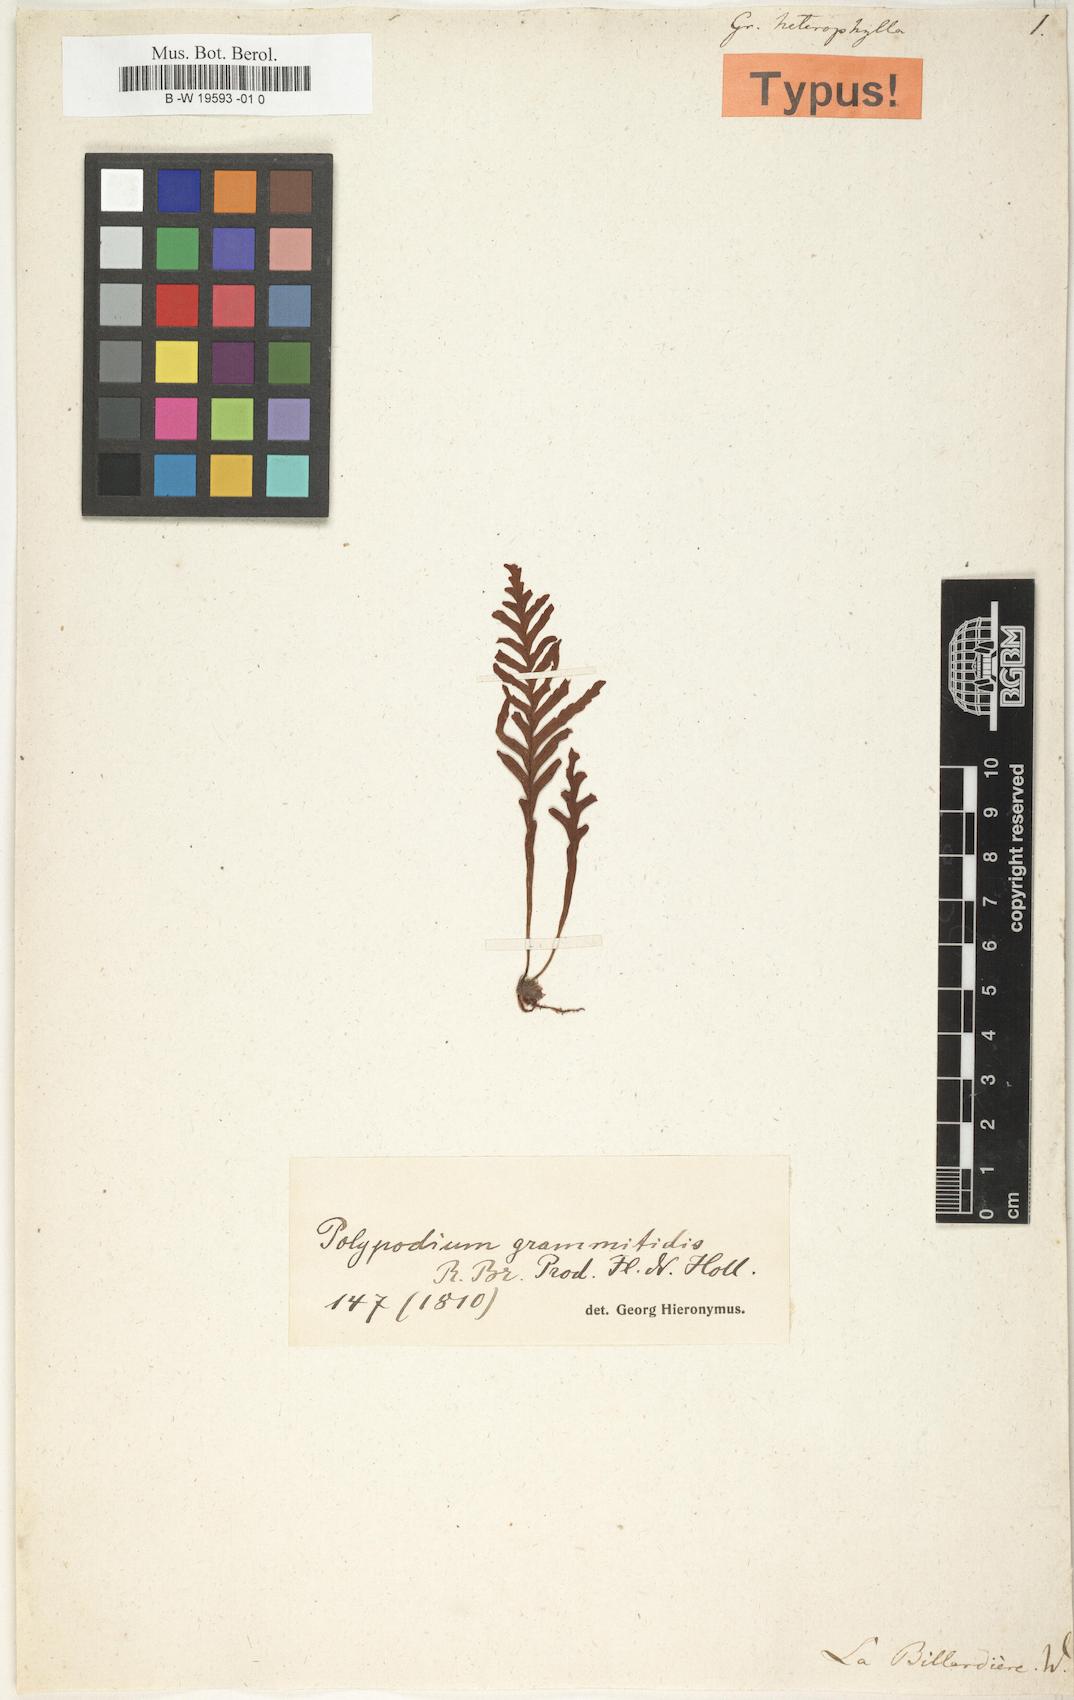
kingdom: Plantae
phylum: Tracheophyta
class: Polypodiopsida
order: Polypodiales
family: Polypodiaceae
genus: Notogrammitis
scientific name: Notogrammitis heterophylla
